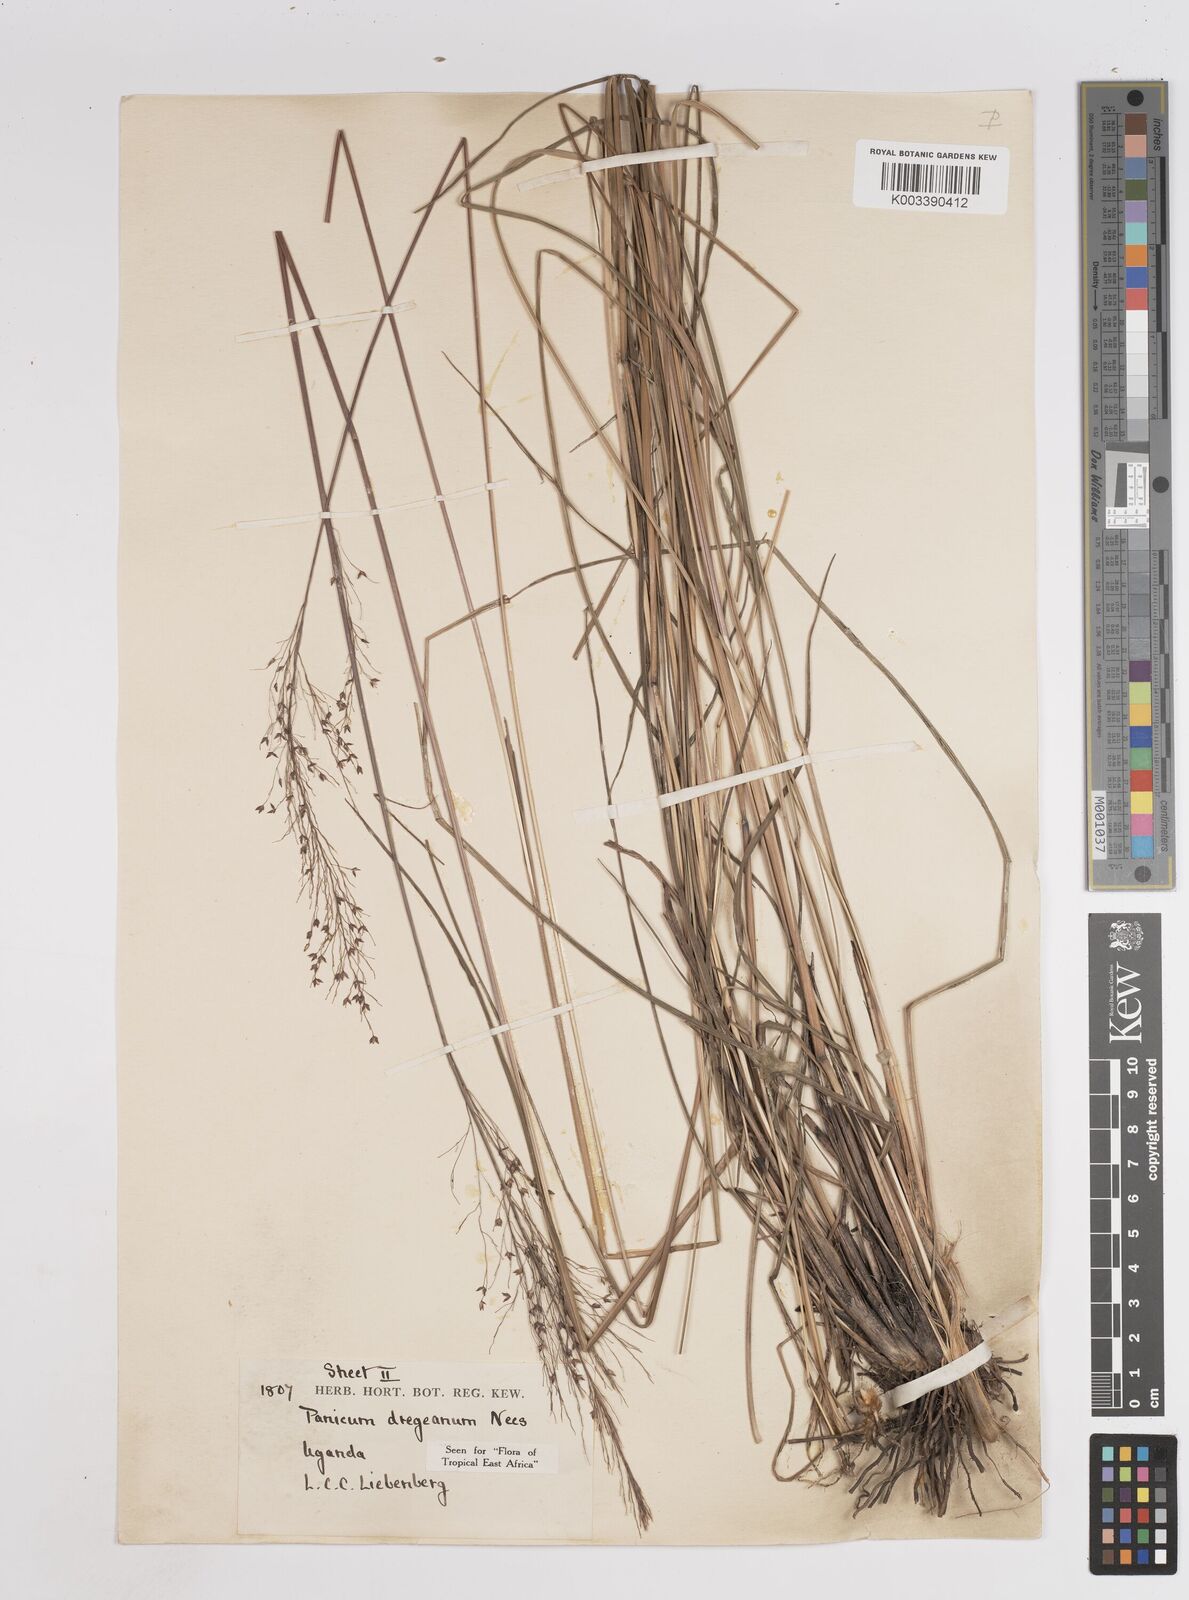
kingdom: Plantae
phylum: Tracheophyta
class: Liliopsida
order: Poales
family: Poaceae
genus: Panicum
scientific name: Panicum dregeanum
